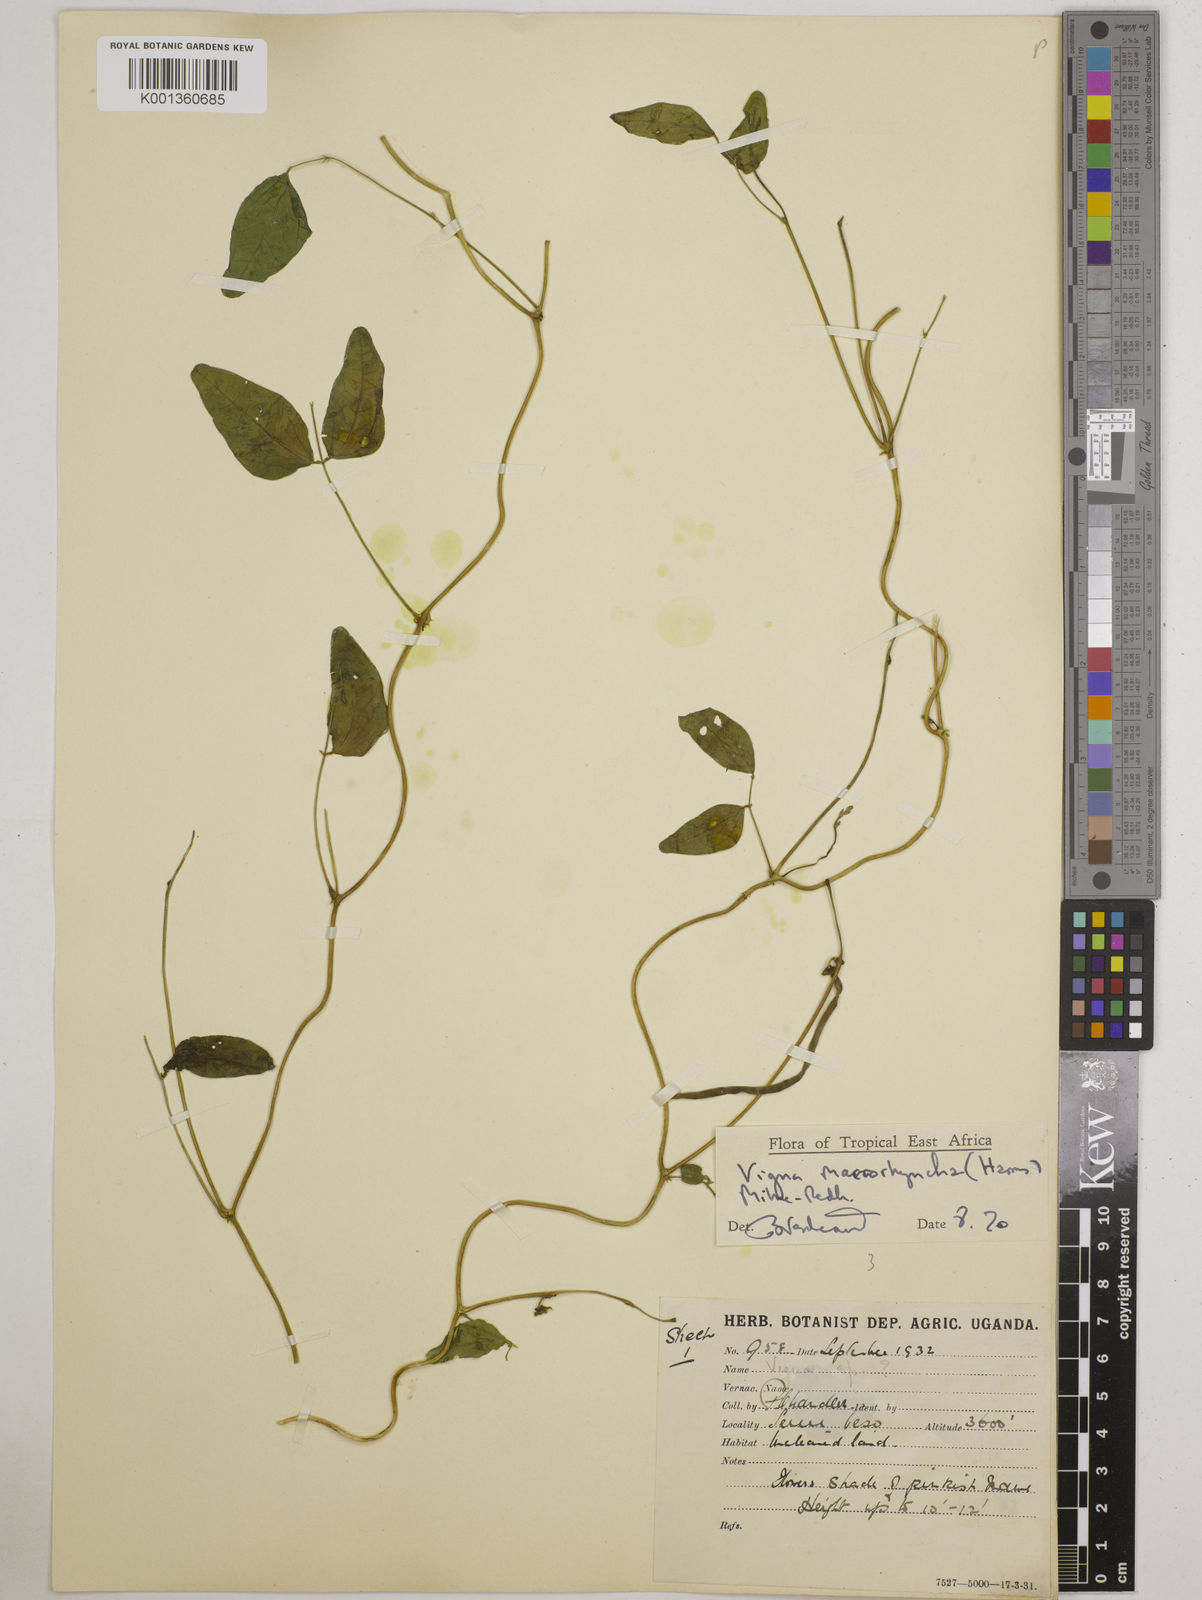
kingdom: Plantae
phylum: Tracheophyta
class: Magnoliopsida
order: Fabales
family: Fabaceae
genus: Wajira
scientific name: Wajira grahamiana
